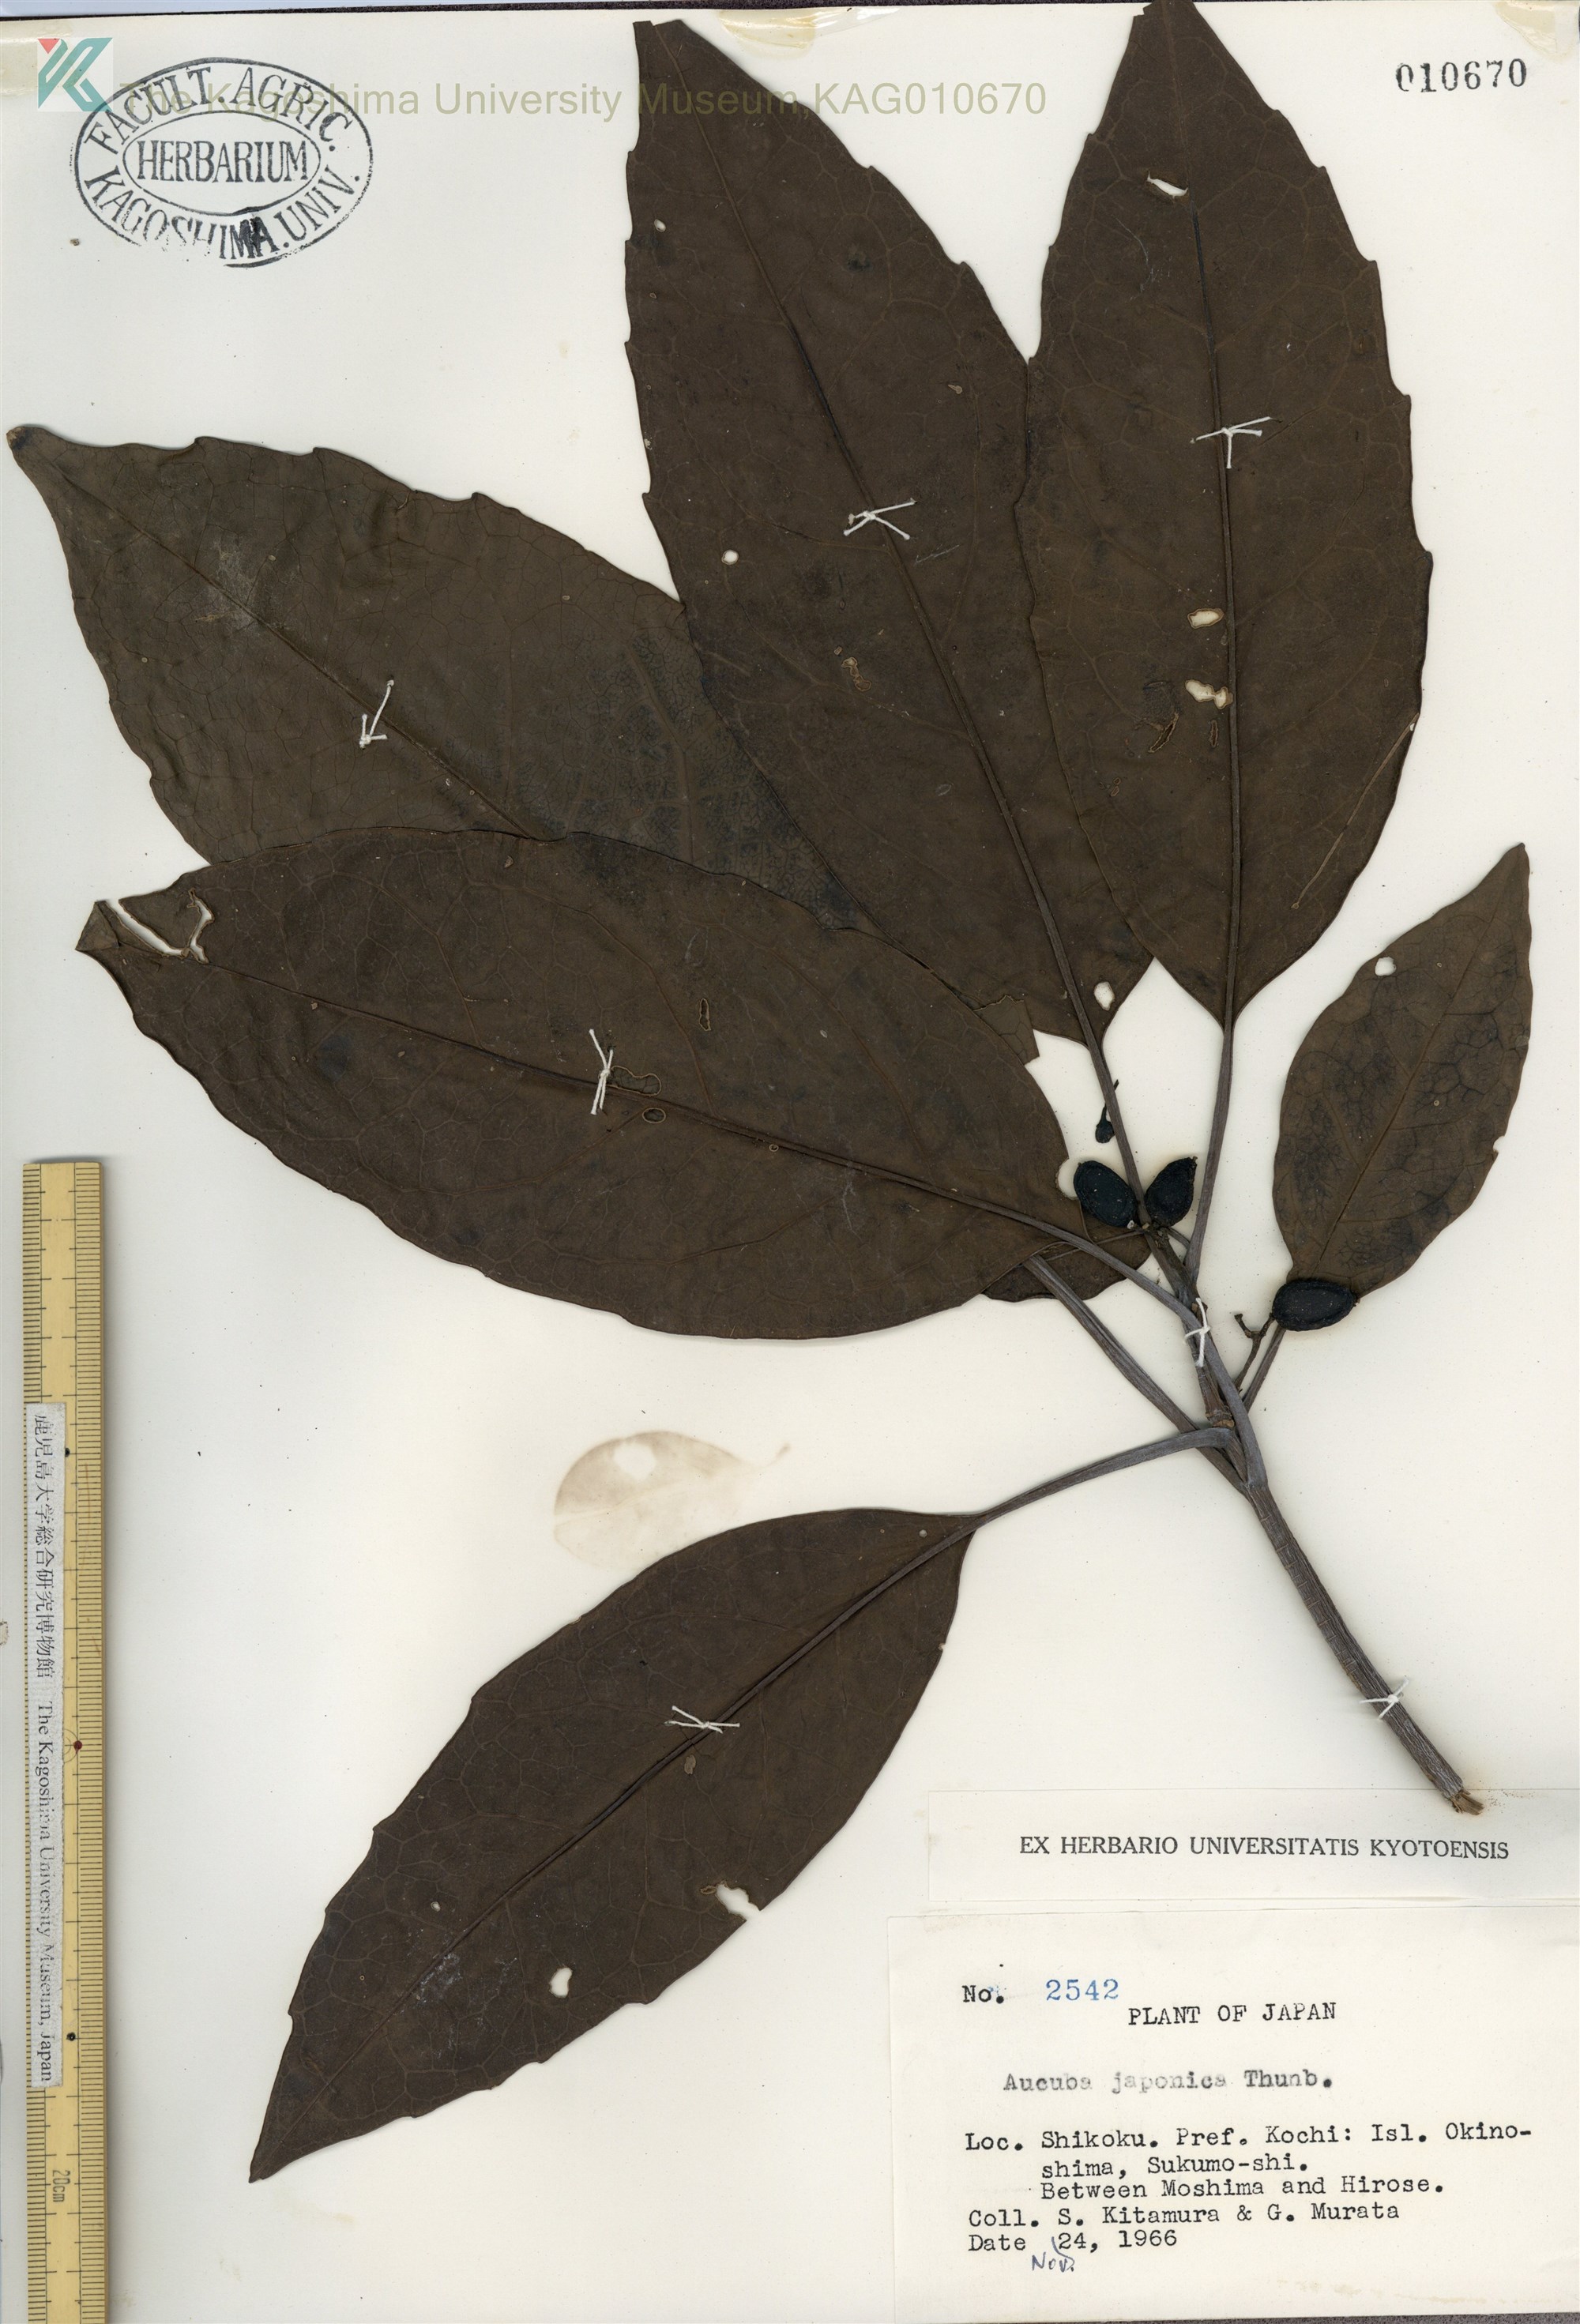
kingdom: Plantae
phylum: Tracheophyta
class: Magnoliopsida
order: Garryales
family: Garryaceae
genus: Aucuba
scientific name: Aucuba japonica
